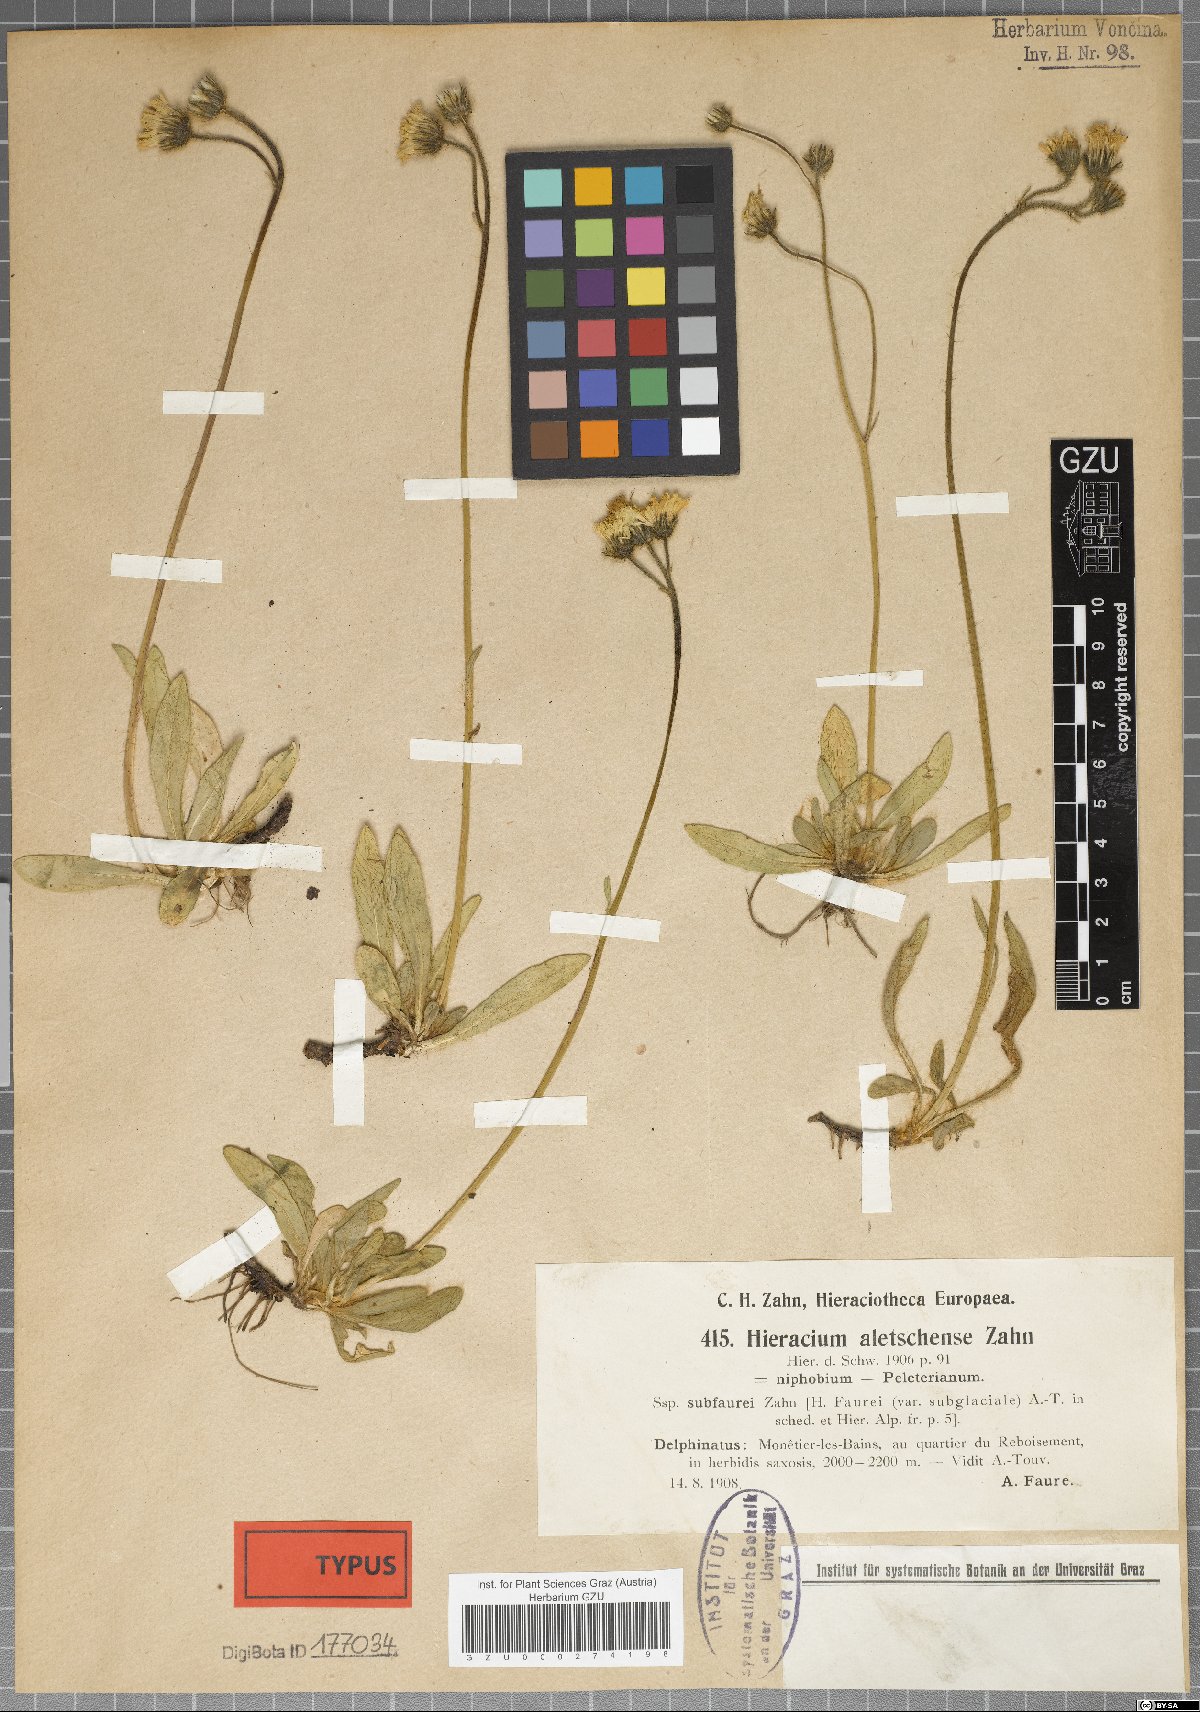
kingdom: Plantae
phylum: Tracheophyta
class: Magnoliopsida
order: Asterales
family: Asteraceae
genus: Pilosella
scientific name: Pilosella aletschensis
